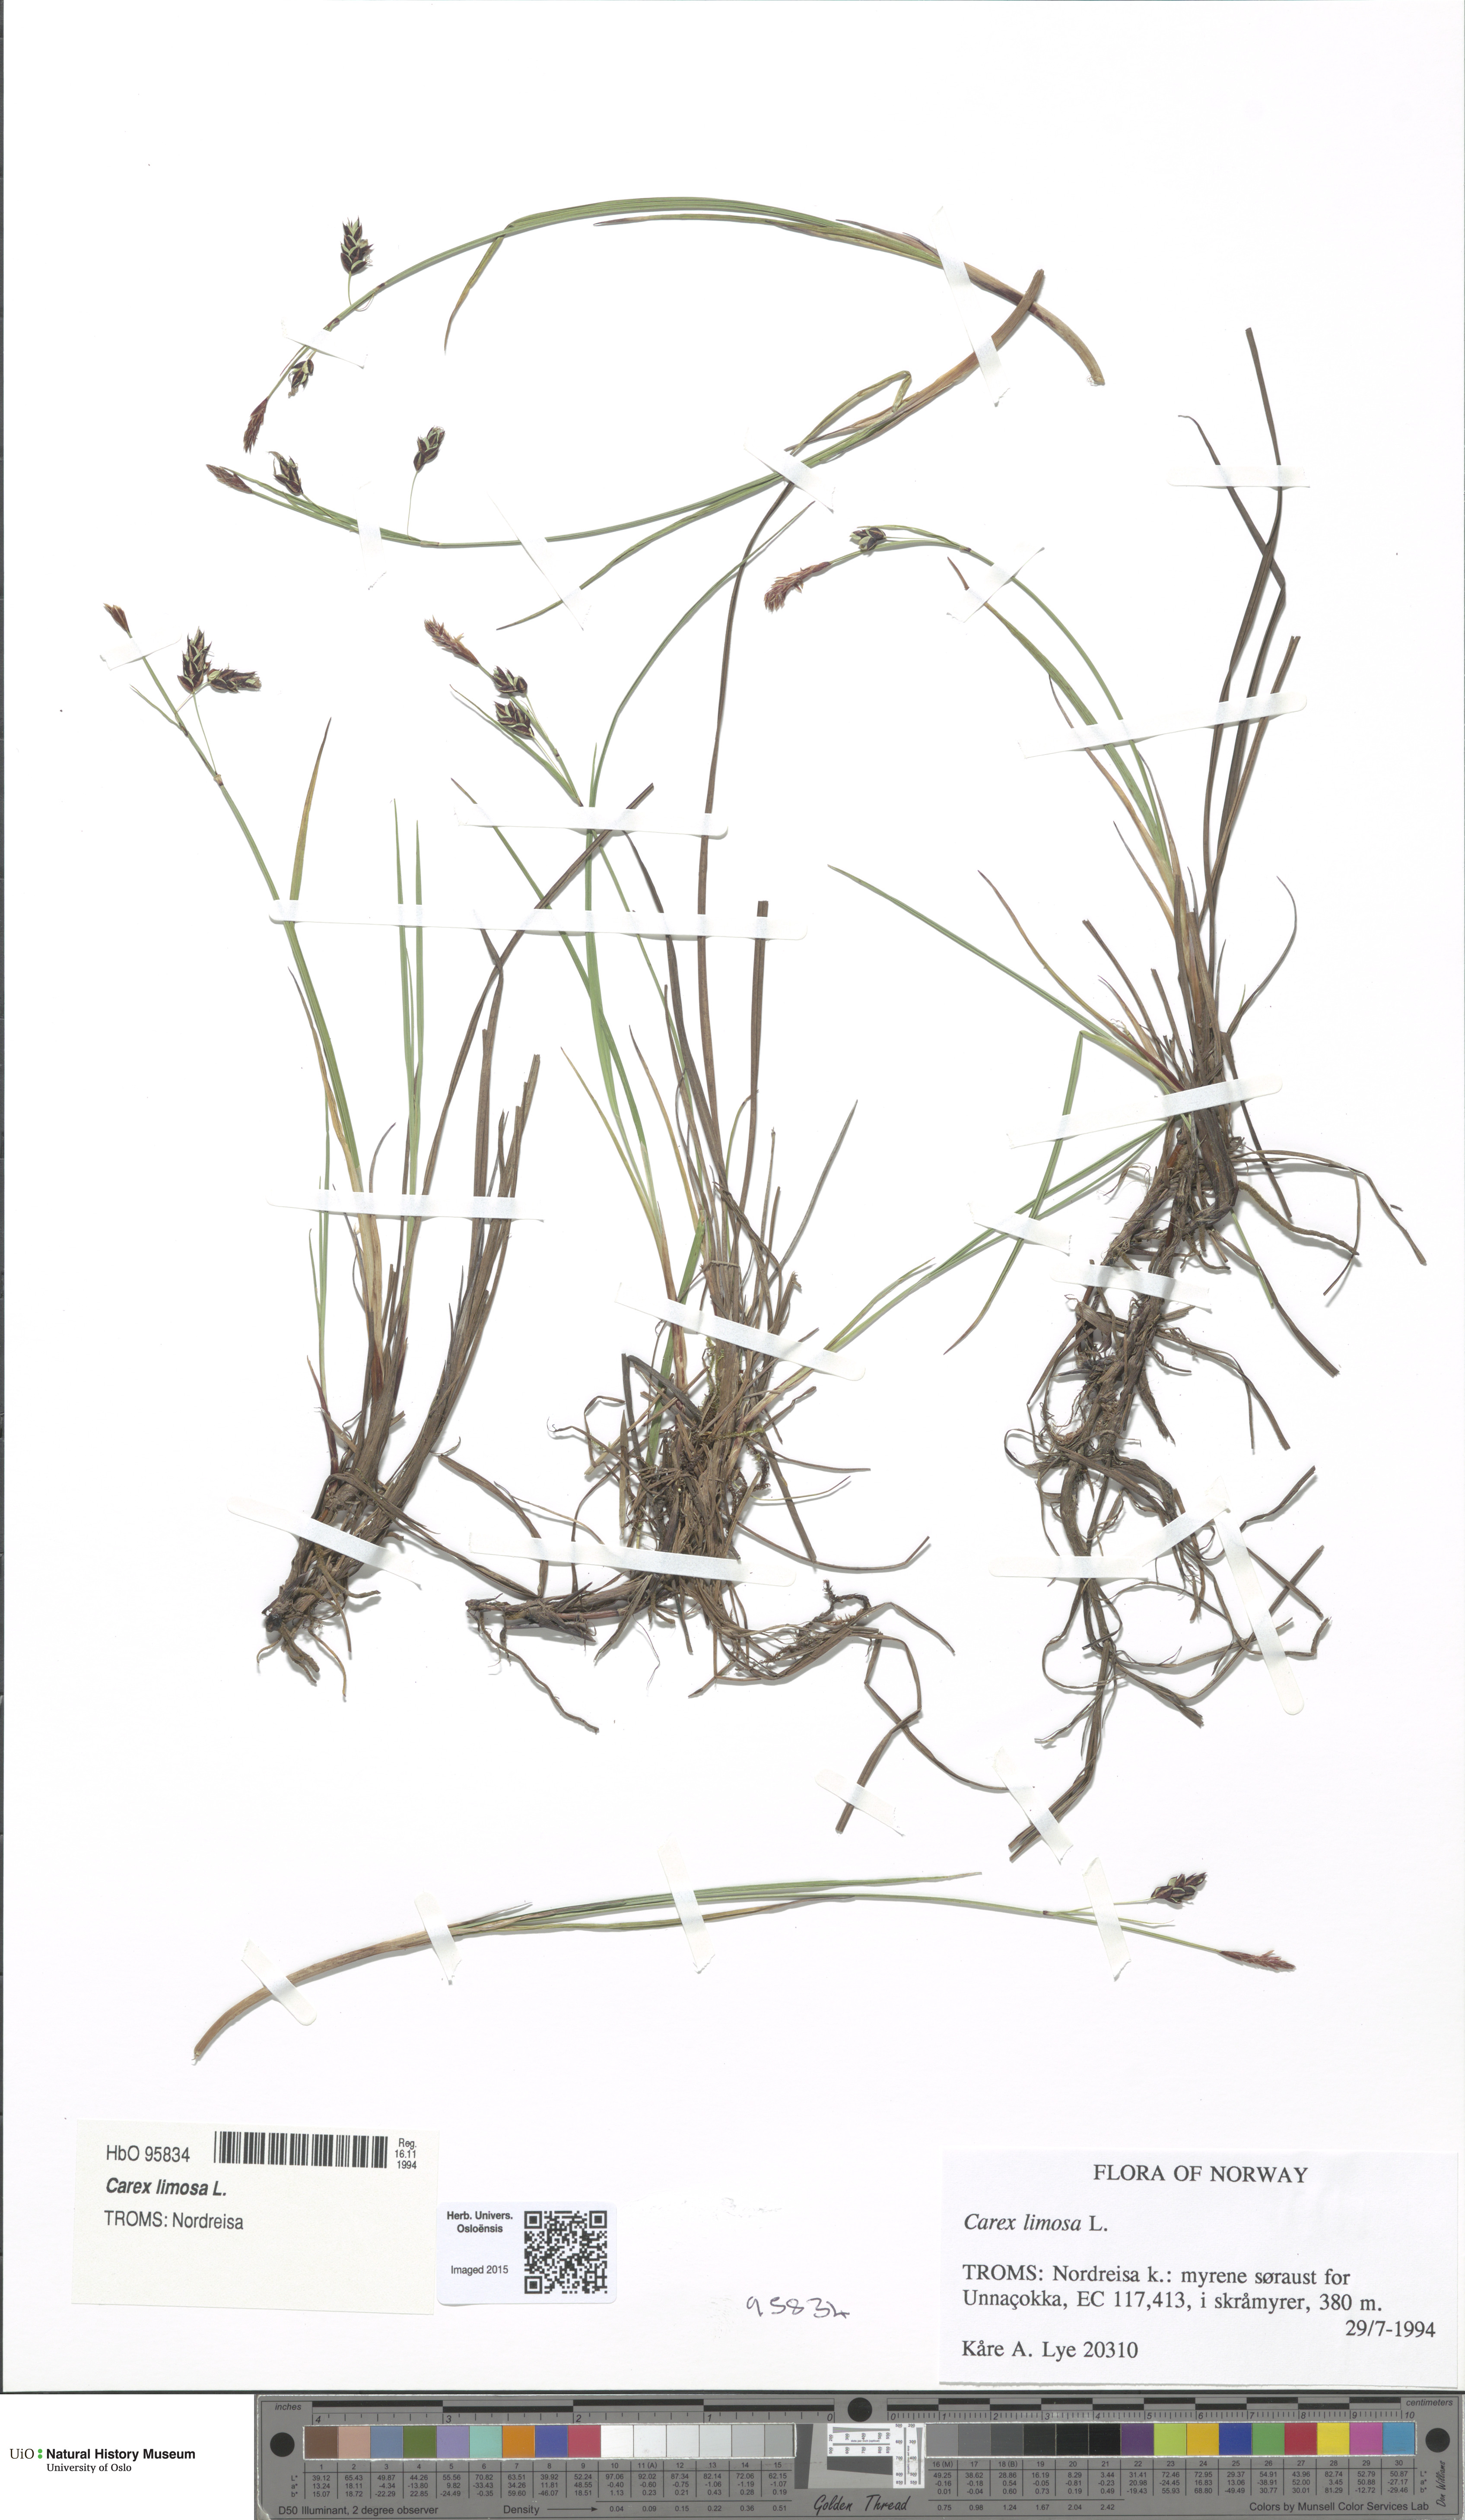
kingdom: Plantae
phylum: Tracheophyta
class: Liliopsida
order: Poales
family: Cyperaceae
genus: Carex
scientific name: Carex limosa
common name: Bog sedge
